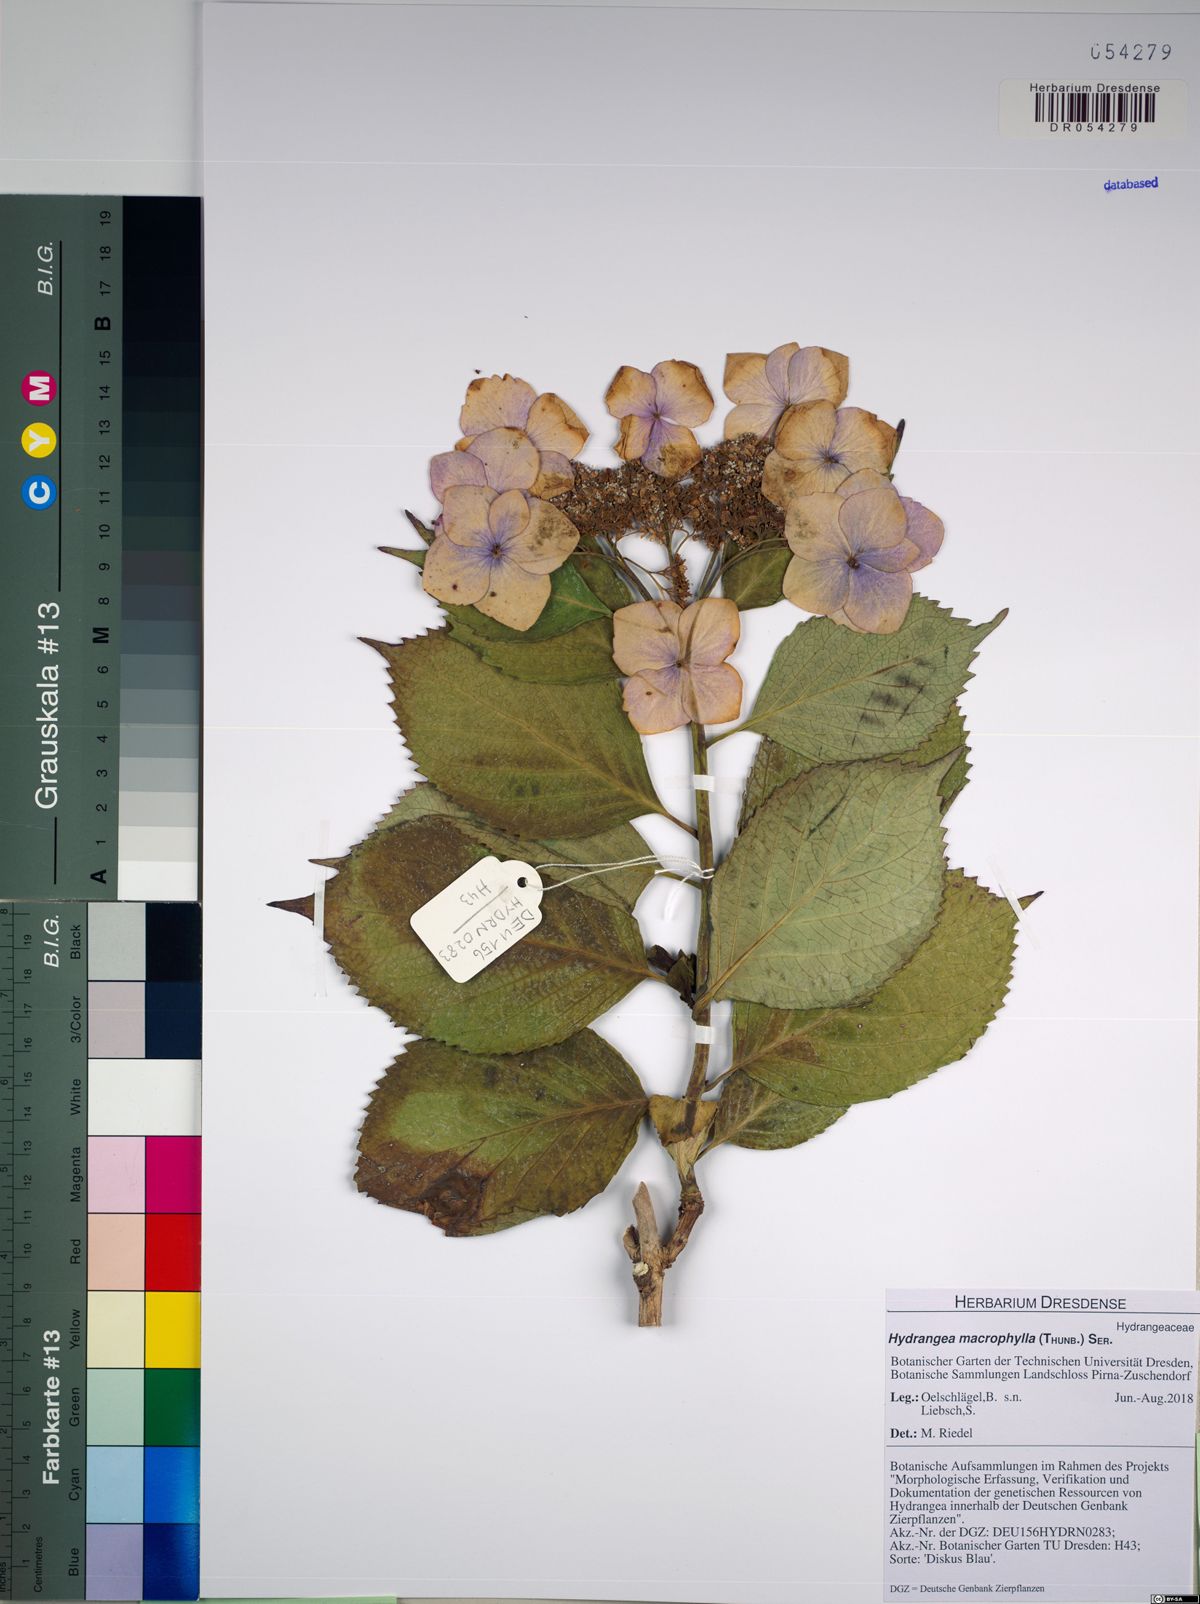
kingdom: Plantae
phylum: Tracheophyta
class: Magnoliopsida
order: Cornales
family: Hydrangeaceae
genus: Hydrangea
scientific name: Hydrangea macrophylla
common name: Hydrangea
